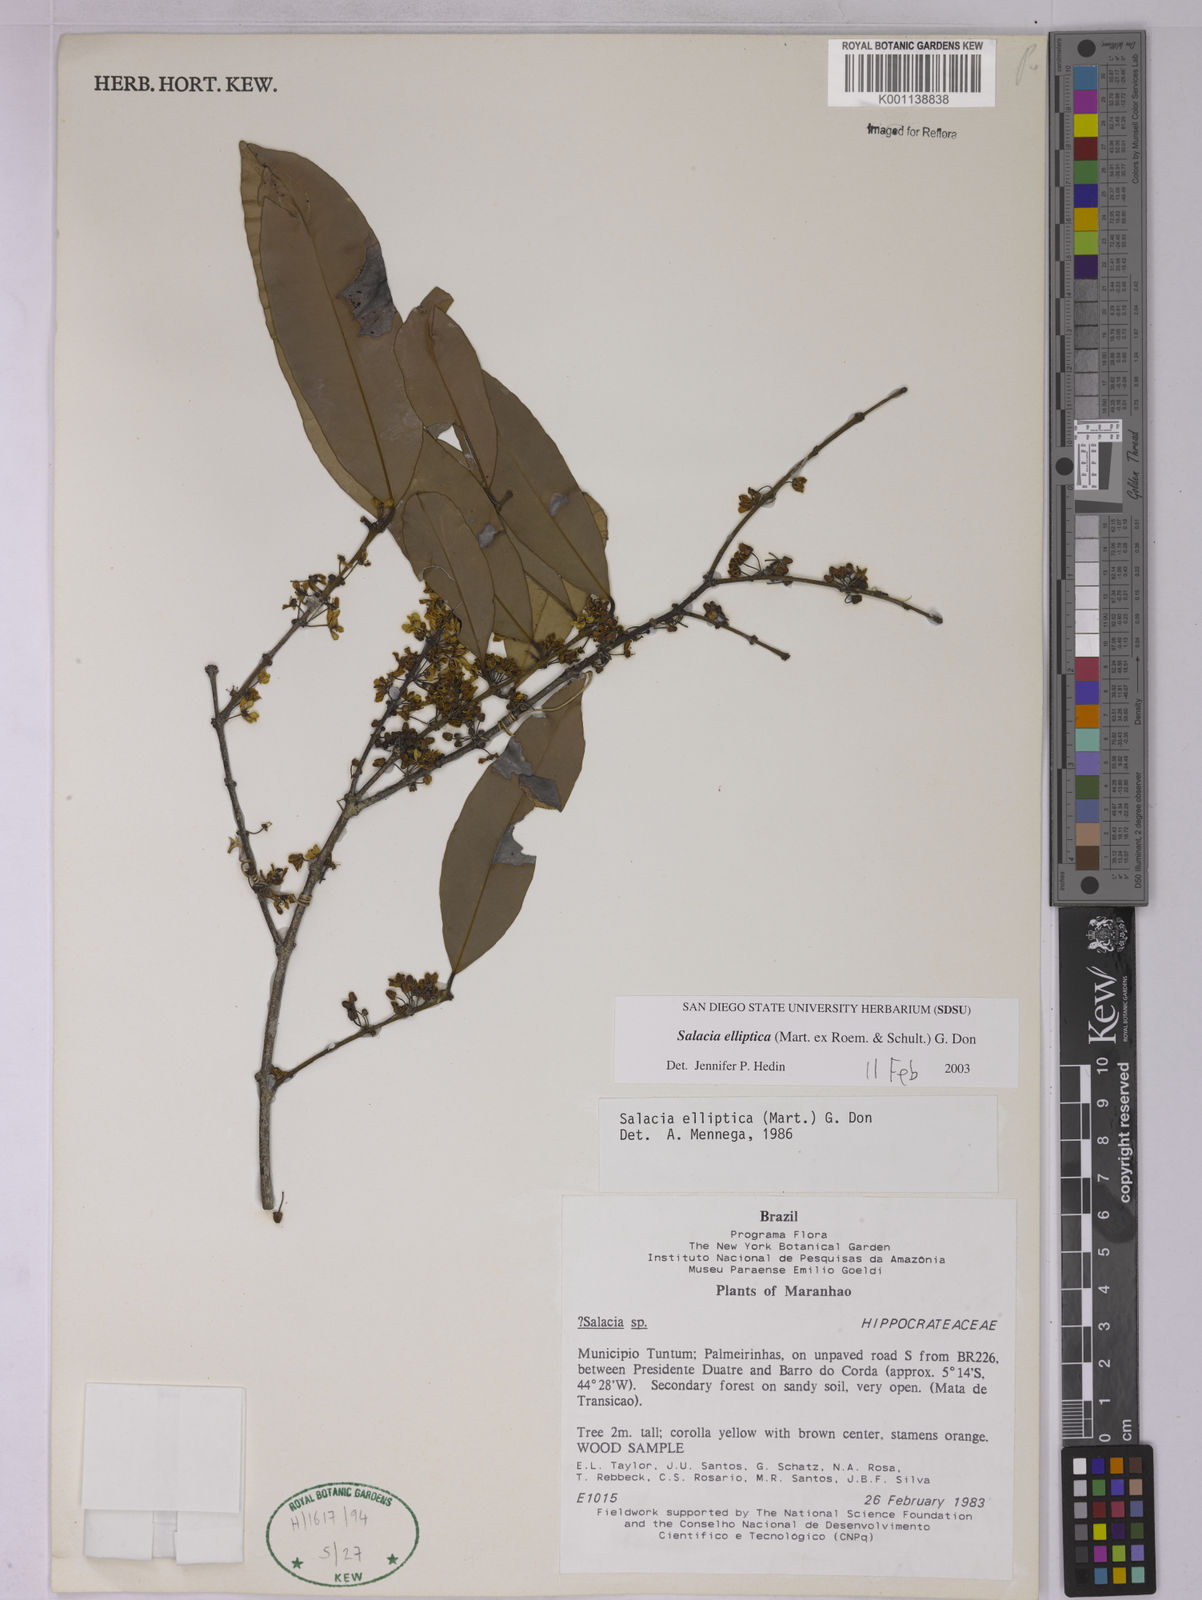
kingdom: Plantae
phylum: Tracheophyta
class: Magnoliopsida
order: Celastrales
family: Celastraceae
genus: Salacia
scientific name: Salacia elliptica
